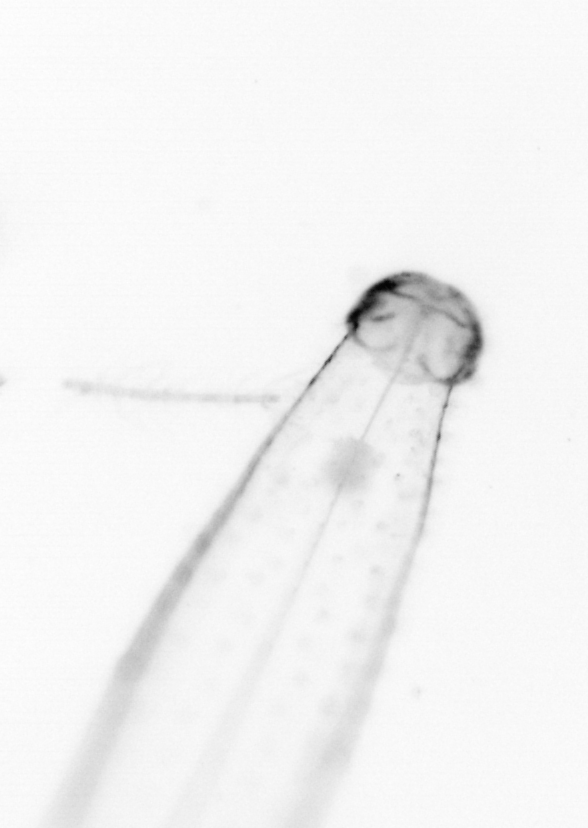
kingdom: Animalia
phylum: Chaetognatha
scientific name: Chaetognatha
